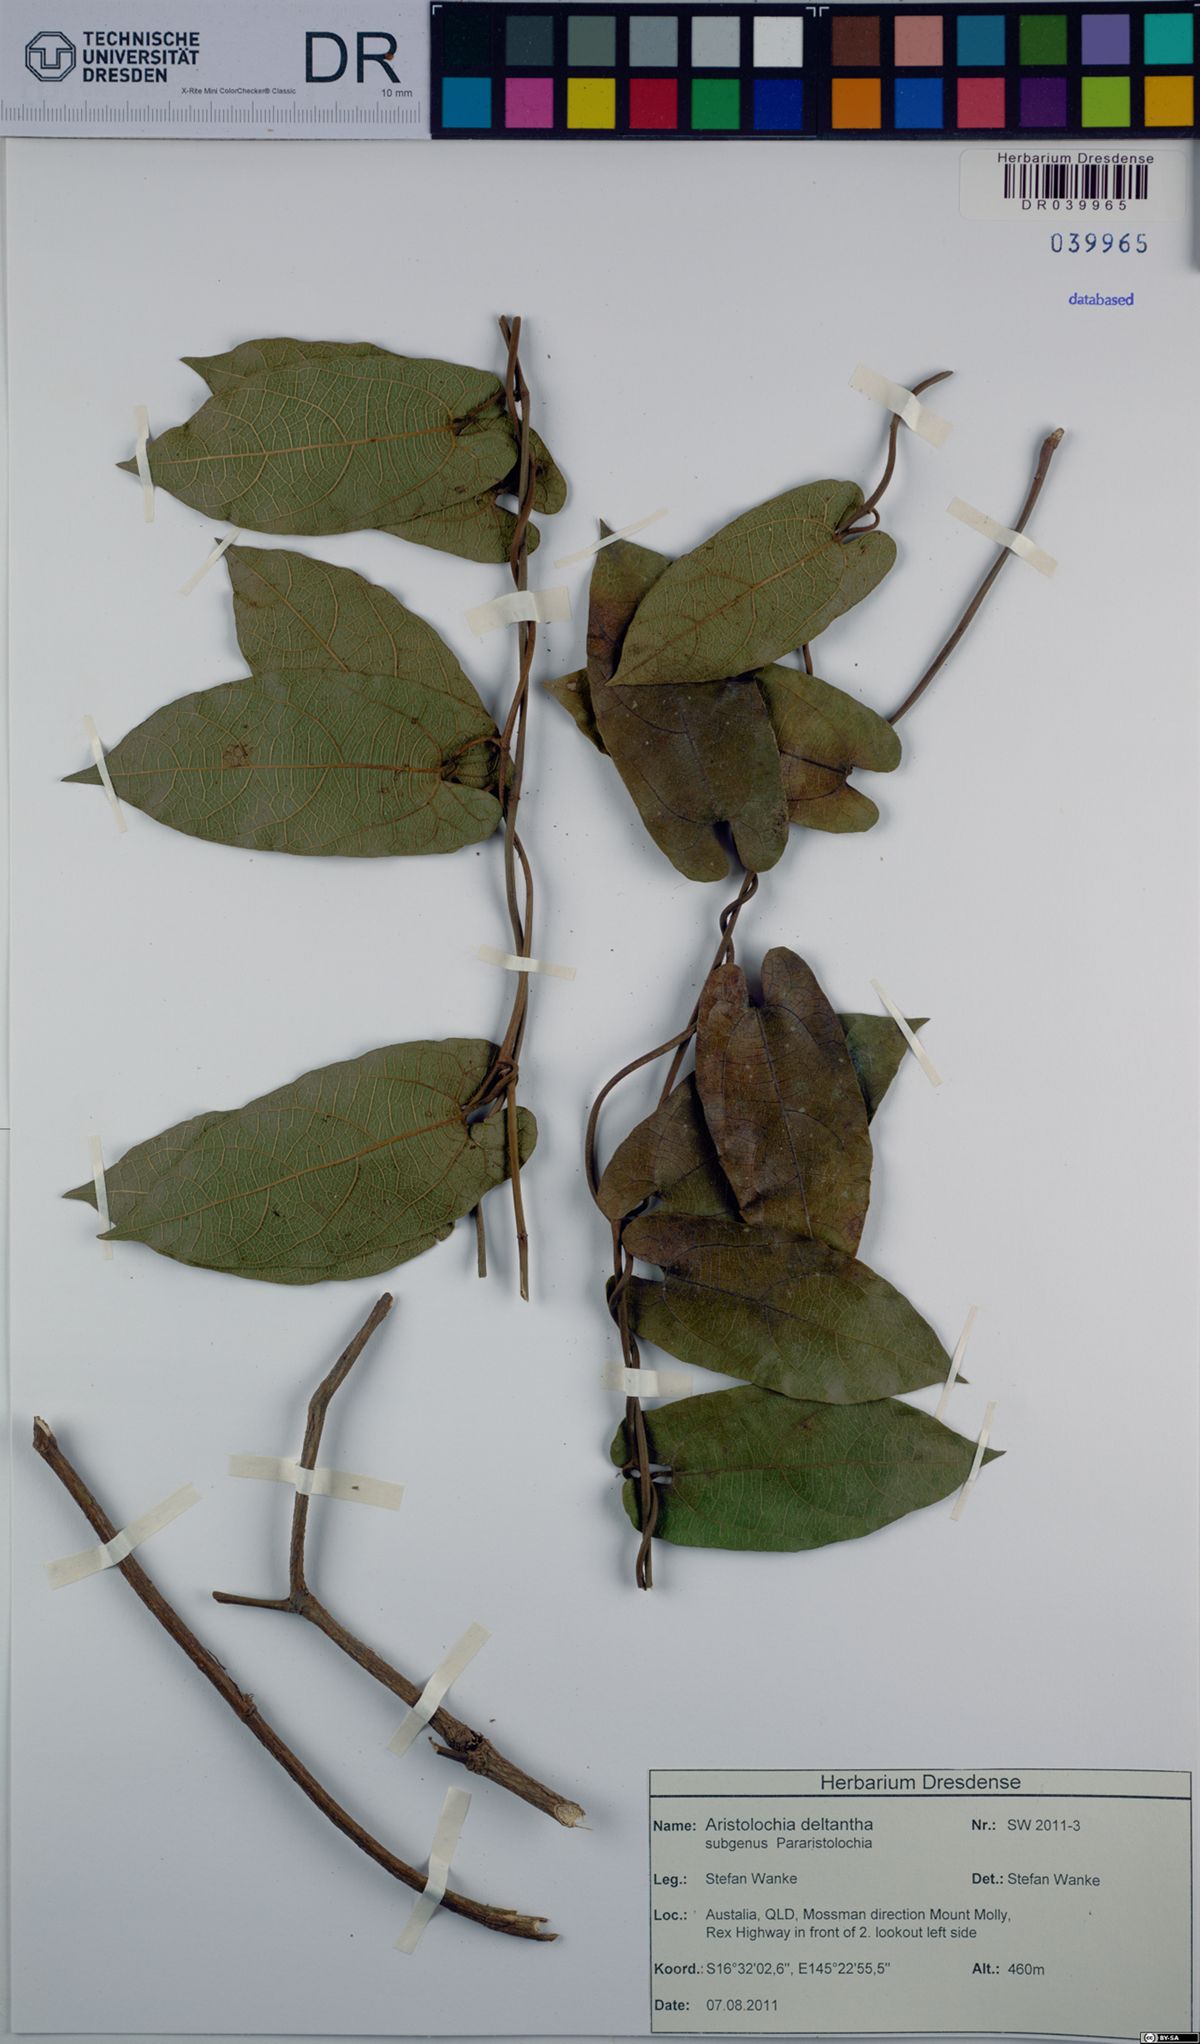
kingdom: Plantae
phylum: Tracheophyta
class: Magnoliopsida
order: Piperales
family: Aristolochiaceae
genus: Aristolochia
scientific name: Aristolochia deltantha
